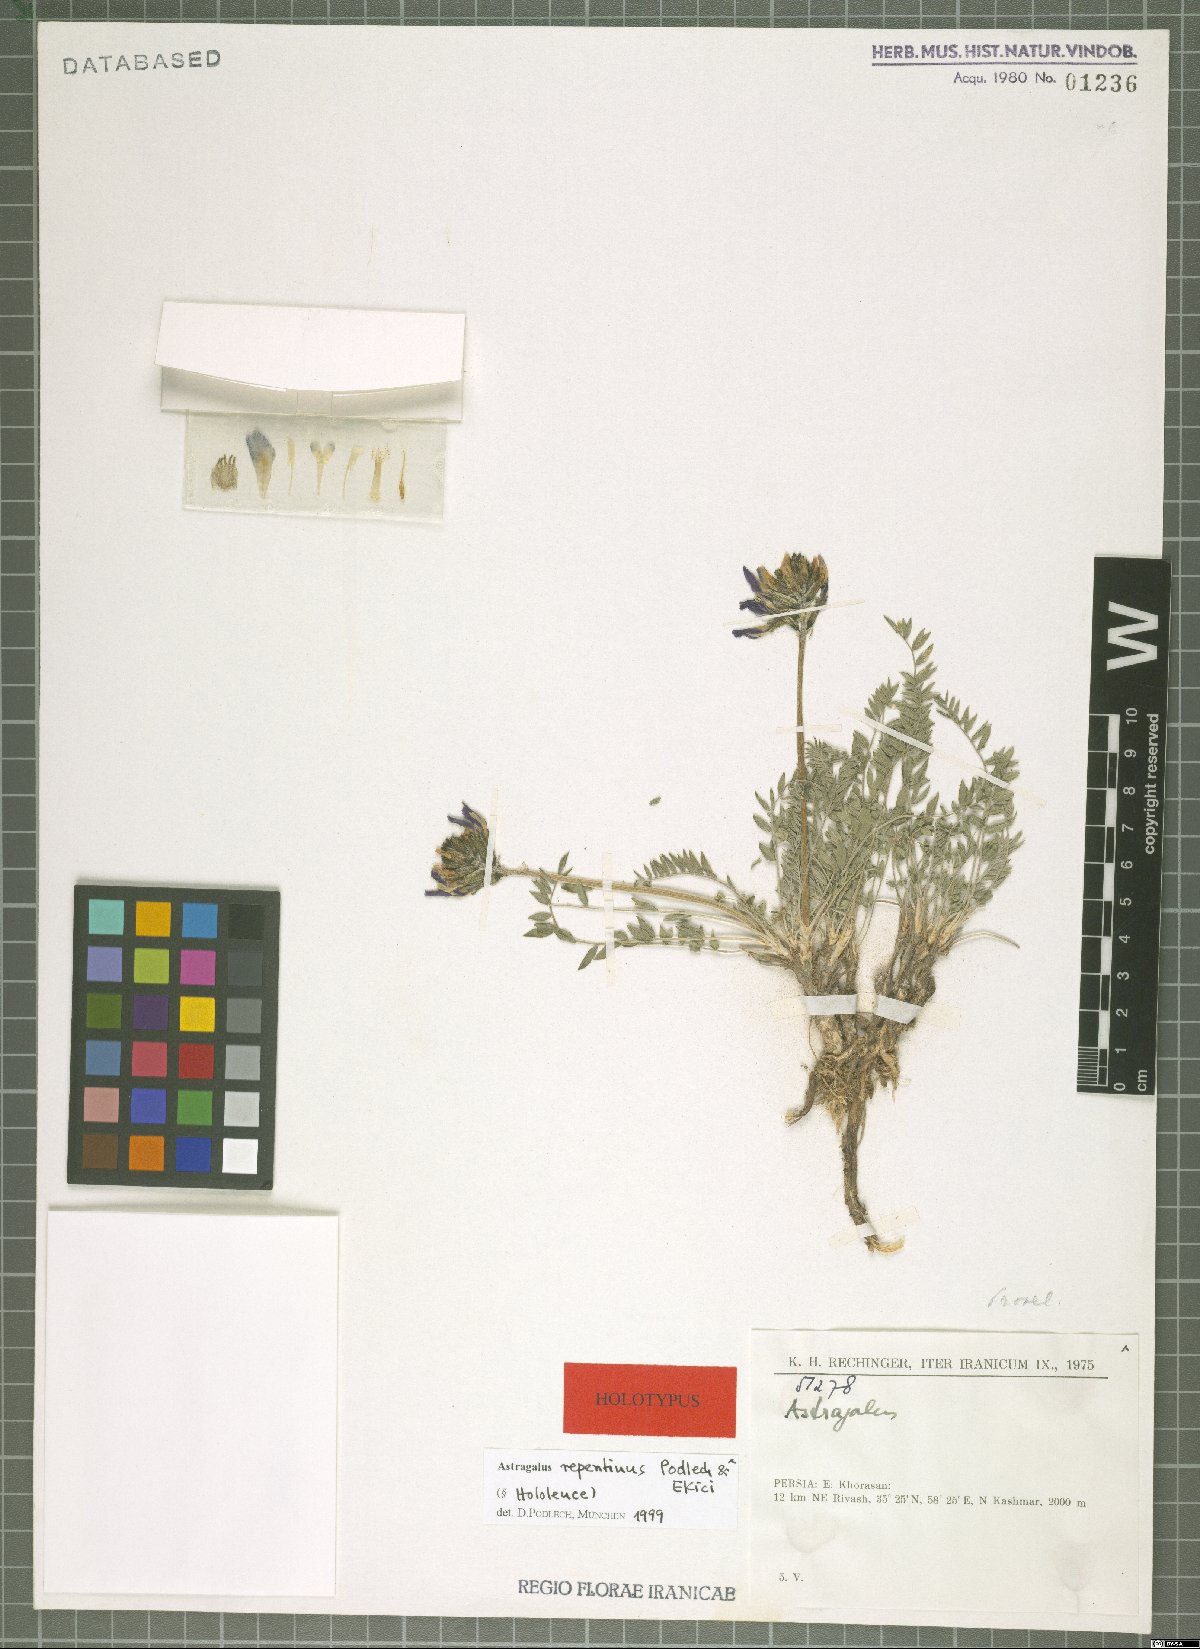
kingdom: Plantae
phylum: Tracheophyta
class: Magnoliopsida
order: Fabales
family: Fabaceae
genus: Astragalus
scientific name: Astragalus repentinus
